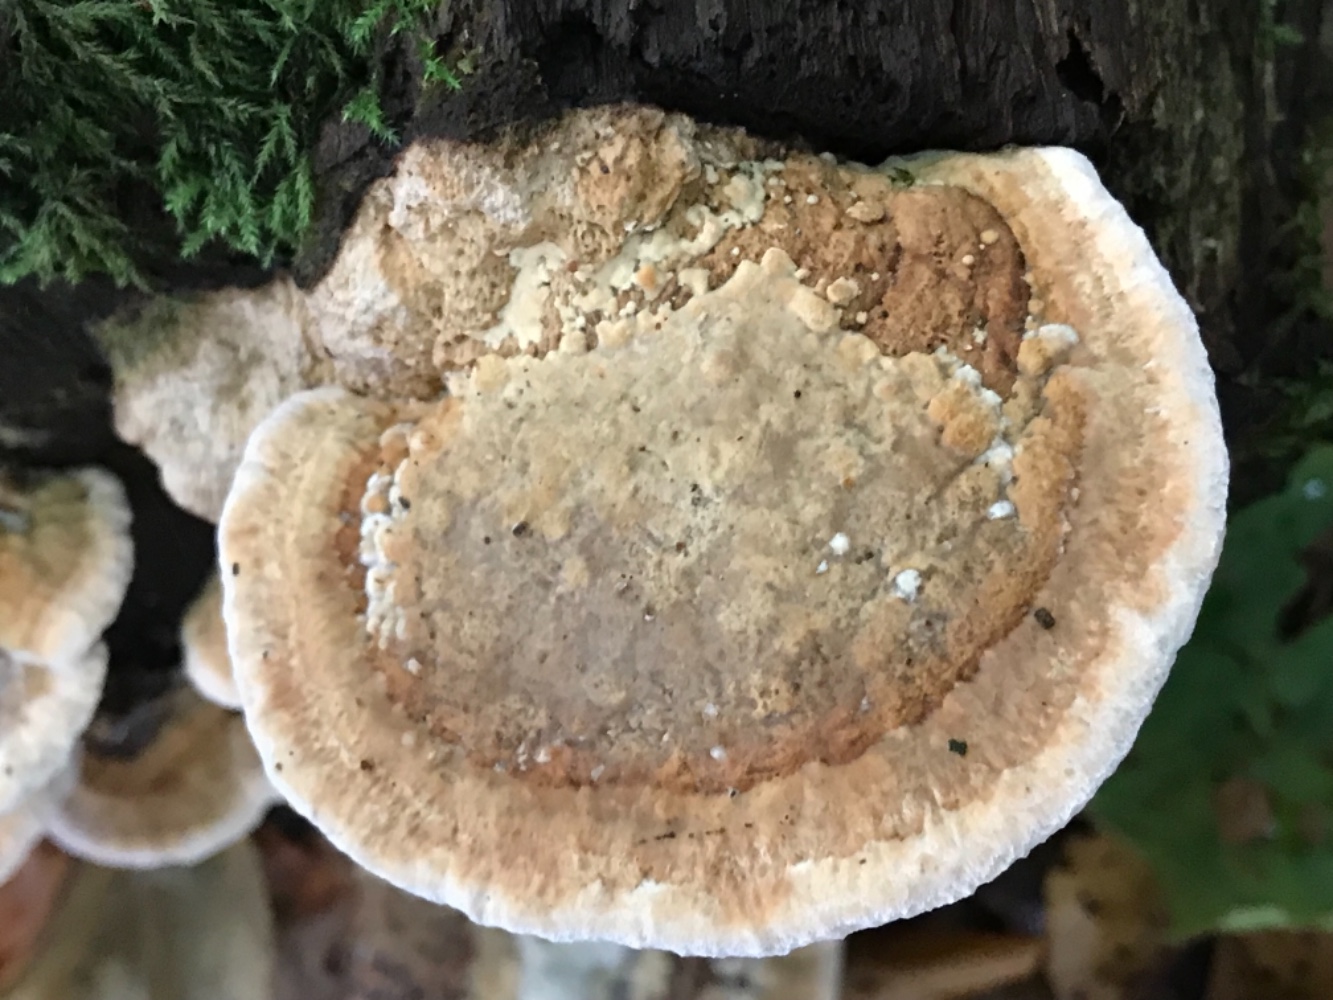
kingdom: Fungi
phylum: Basidiomycota
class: Agaricomycetes
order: Polyporales
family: Fomitopsidaceae
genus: Daedalea
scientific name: Daedalea quercina
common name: ege-labyrintsvamp
